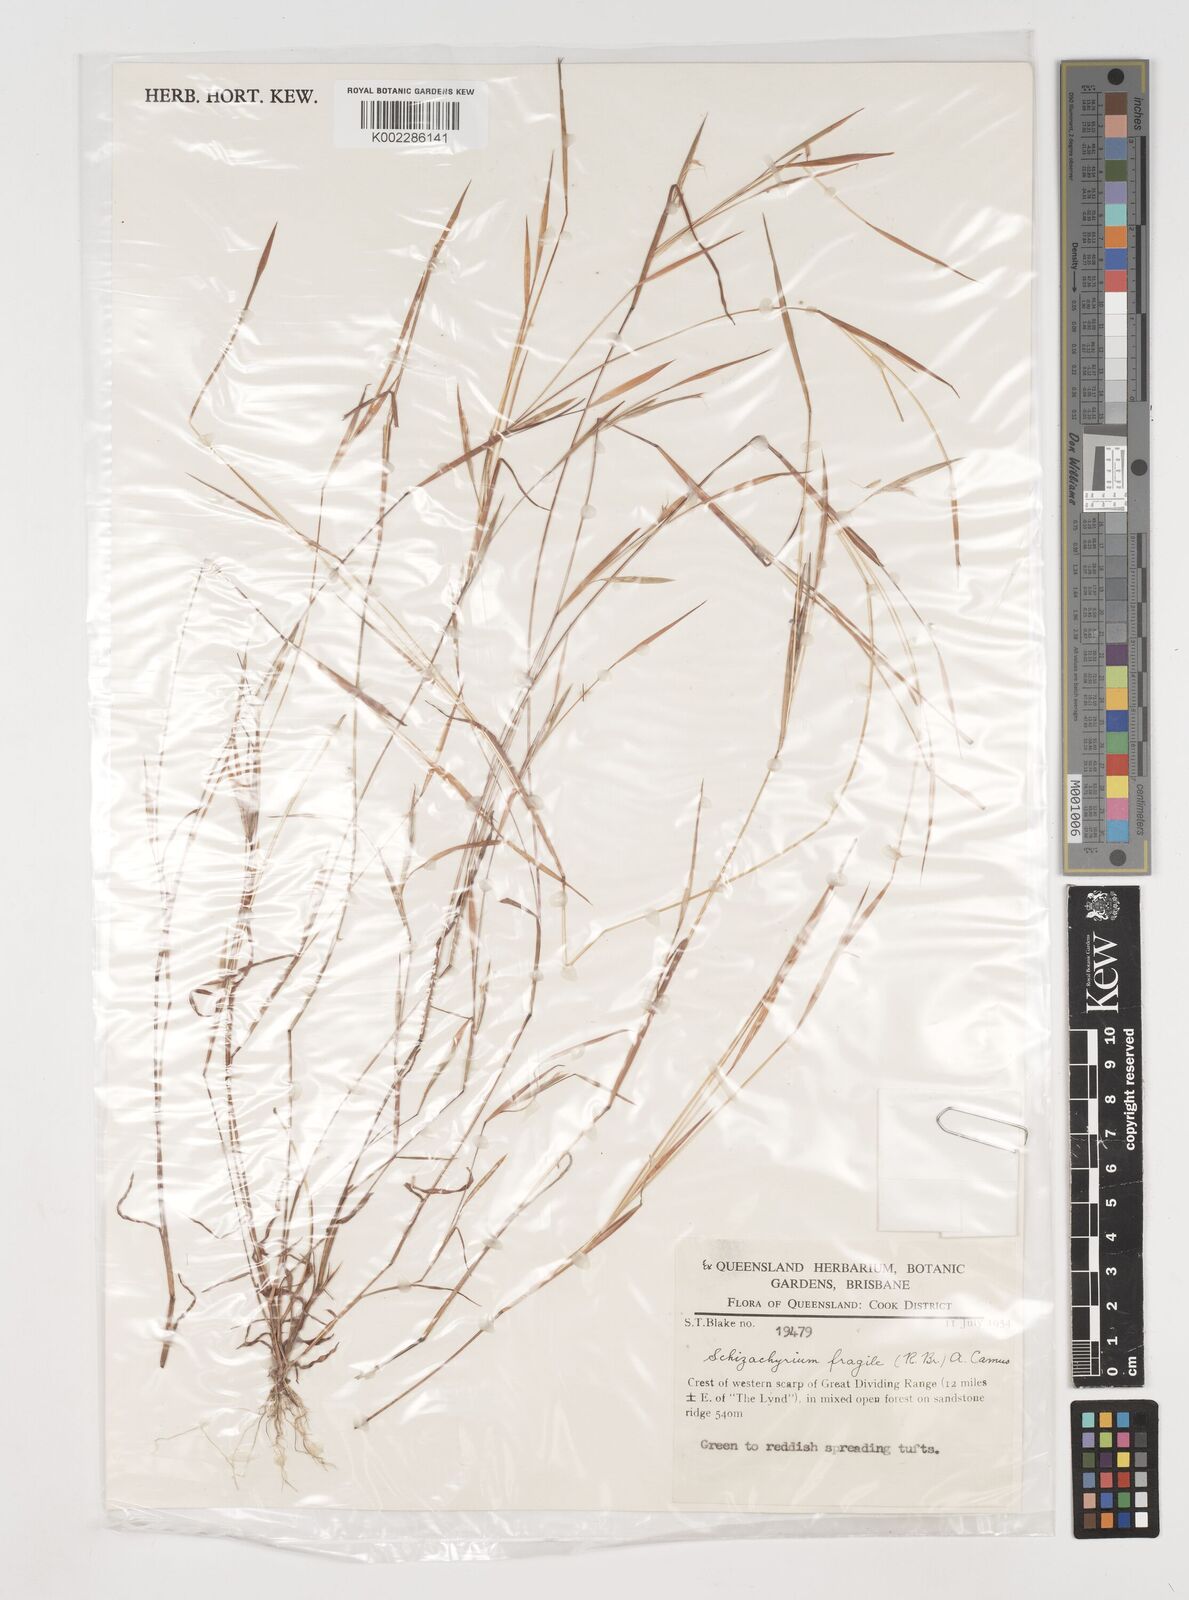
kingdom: Plantae
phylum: Tracheophyta
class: Liliopsida
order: Poales
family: Poaceae
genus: Schizachyrium
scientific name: Schizachyrium fragile
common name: Red spathe grass
